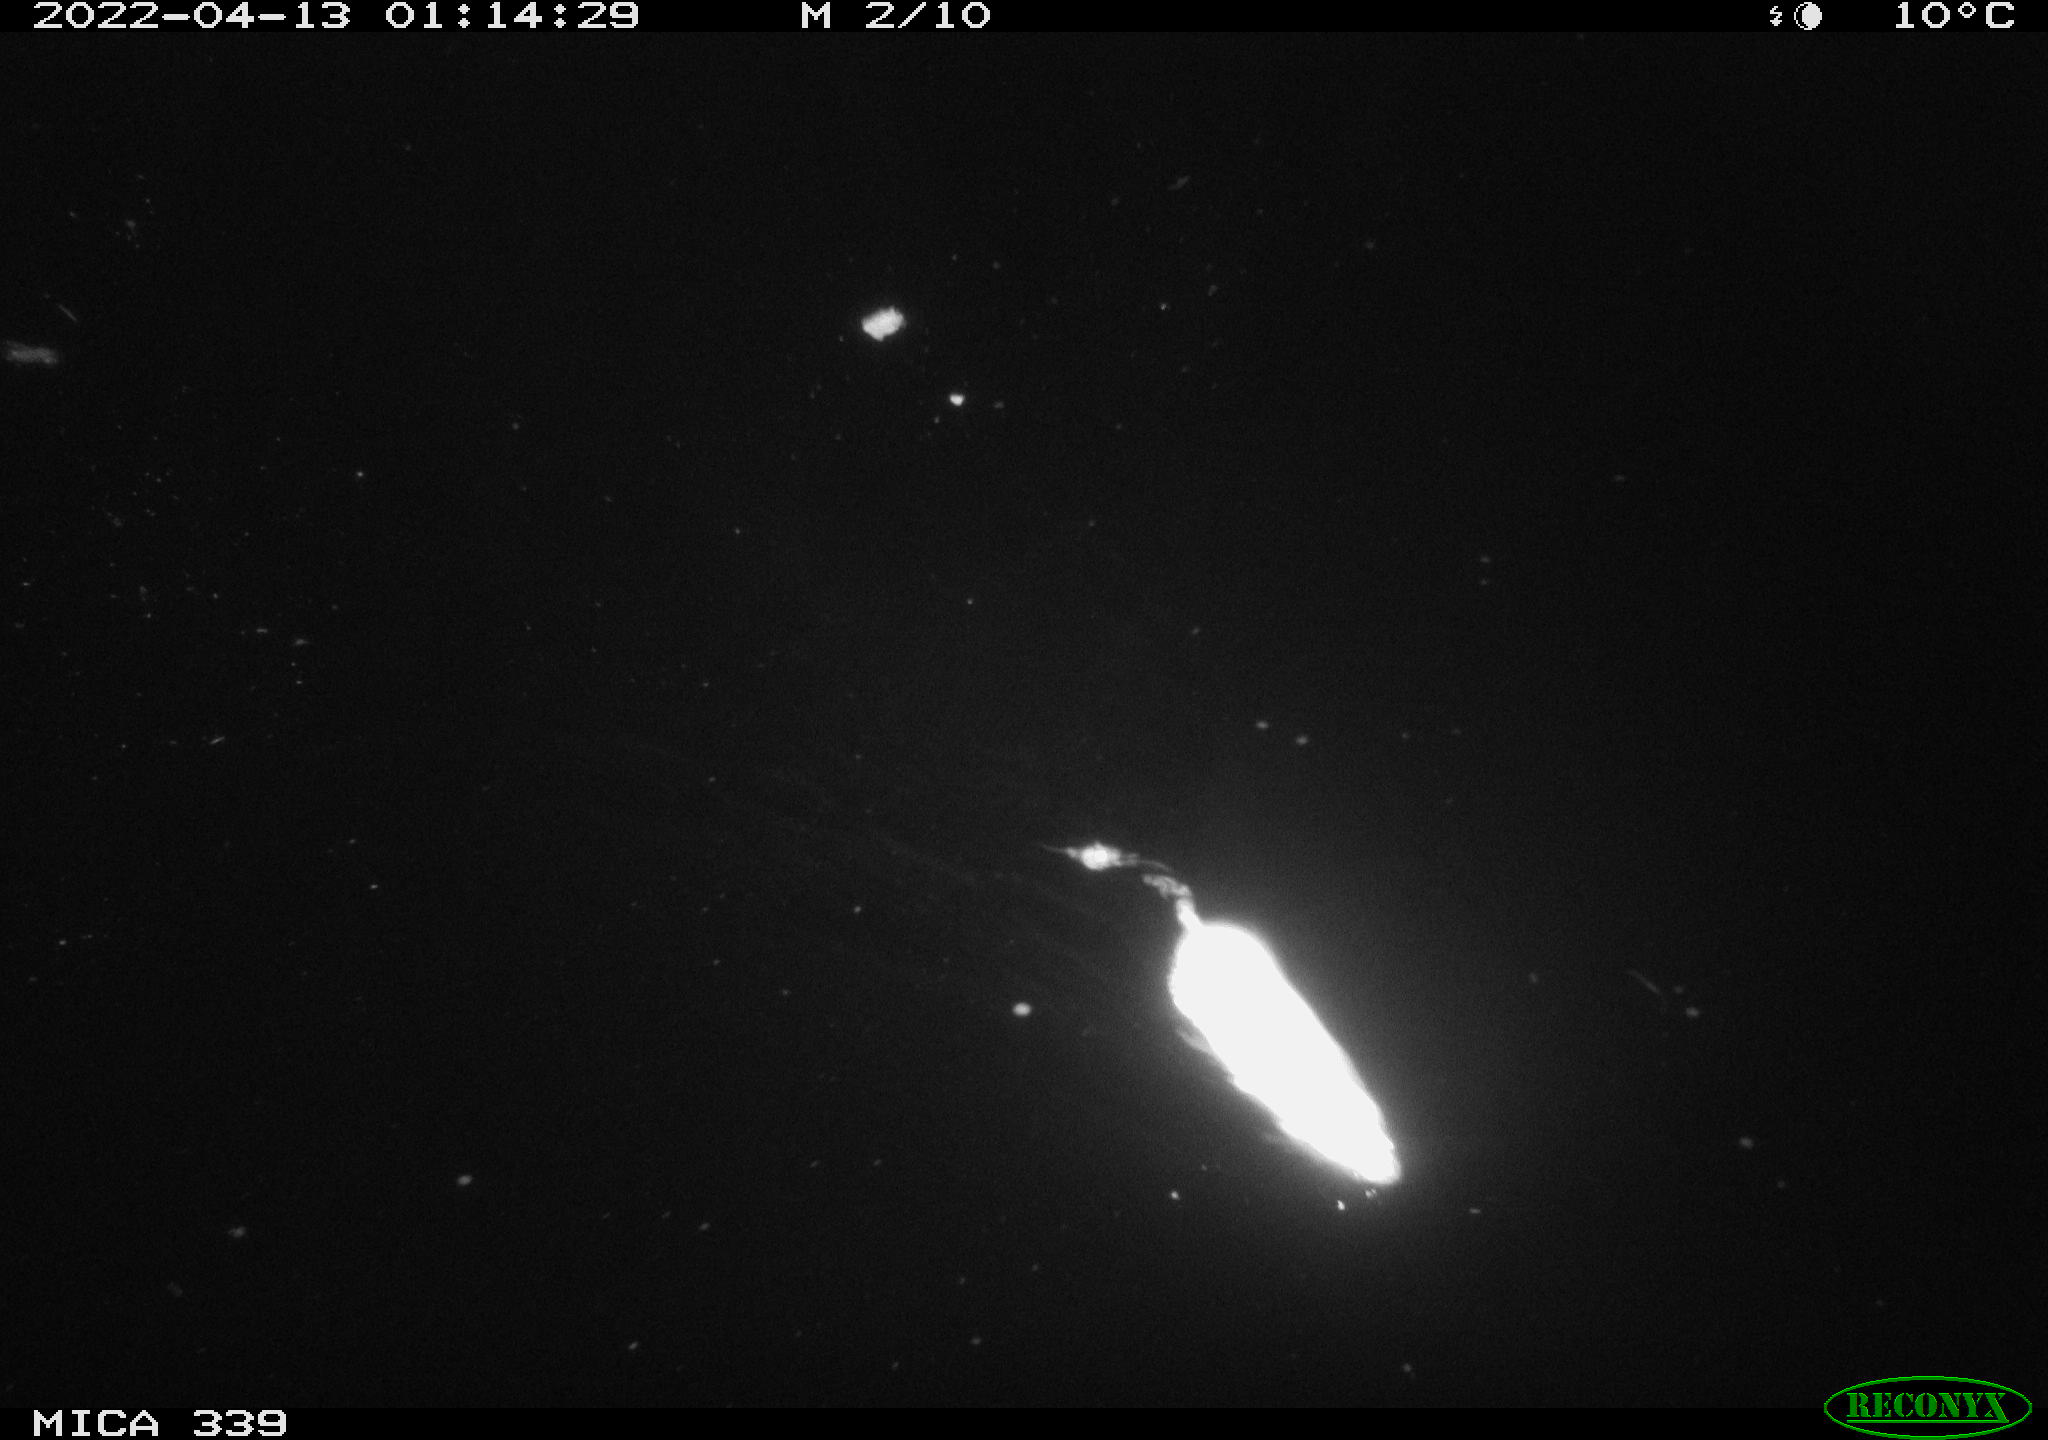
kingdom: Animalia
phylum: Chordata
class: Mammalia
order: Rodentia
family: Muridae
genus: Rattus
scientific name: Rattus norvegicus
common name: Brown rat
